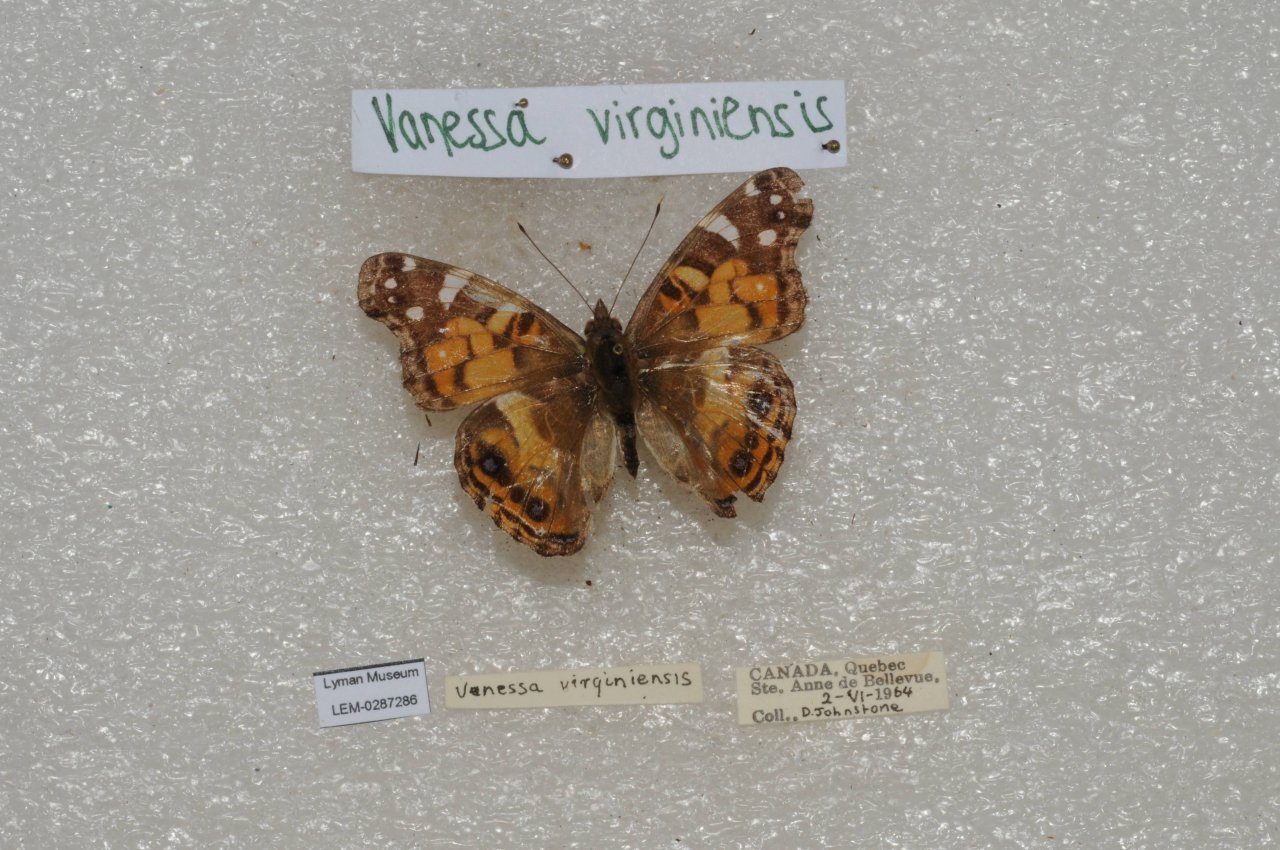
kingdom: Animalia
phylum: Arthropoda
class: Insecta
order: Lepidoptera
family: Nymphalidae
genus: Vanessa
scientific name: Vanessa virginiensis
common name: American Lady
